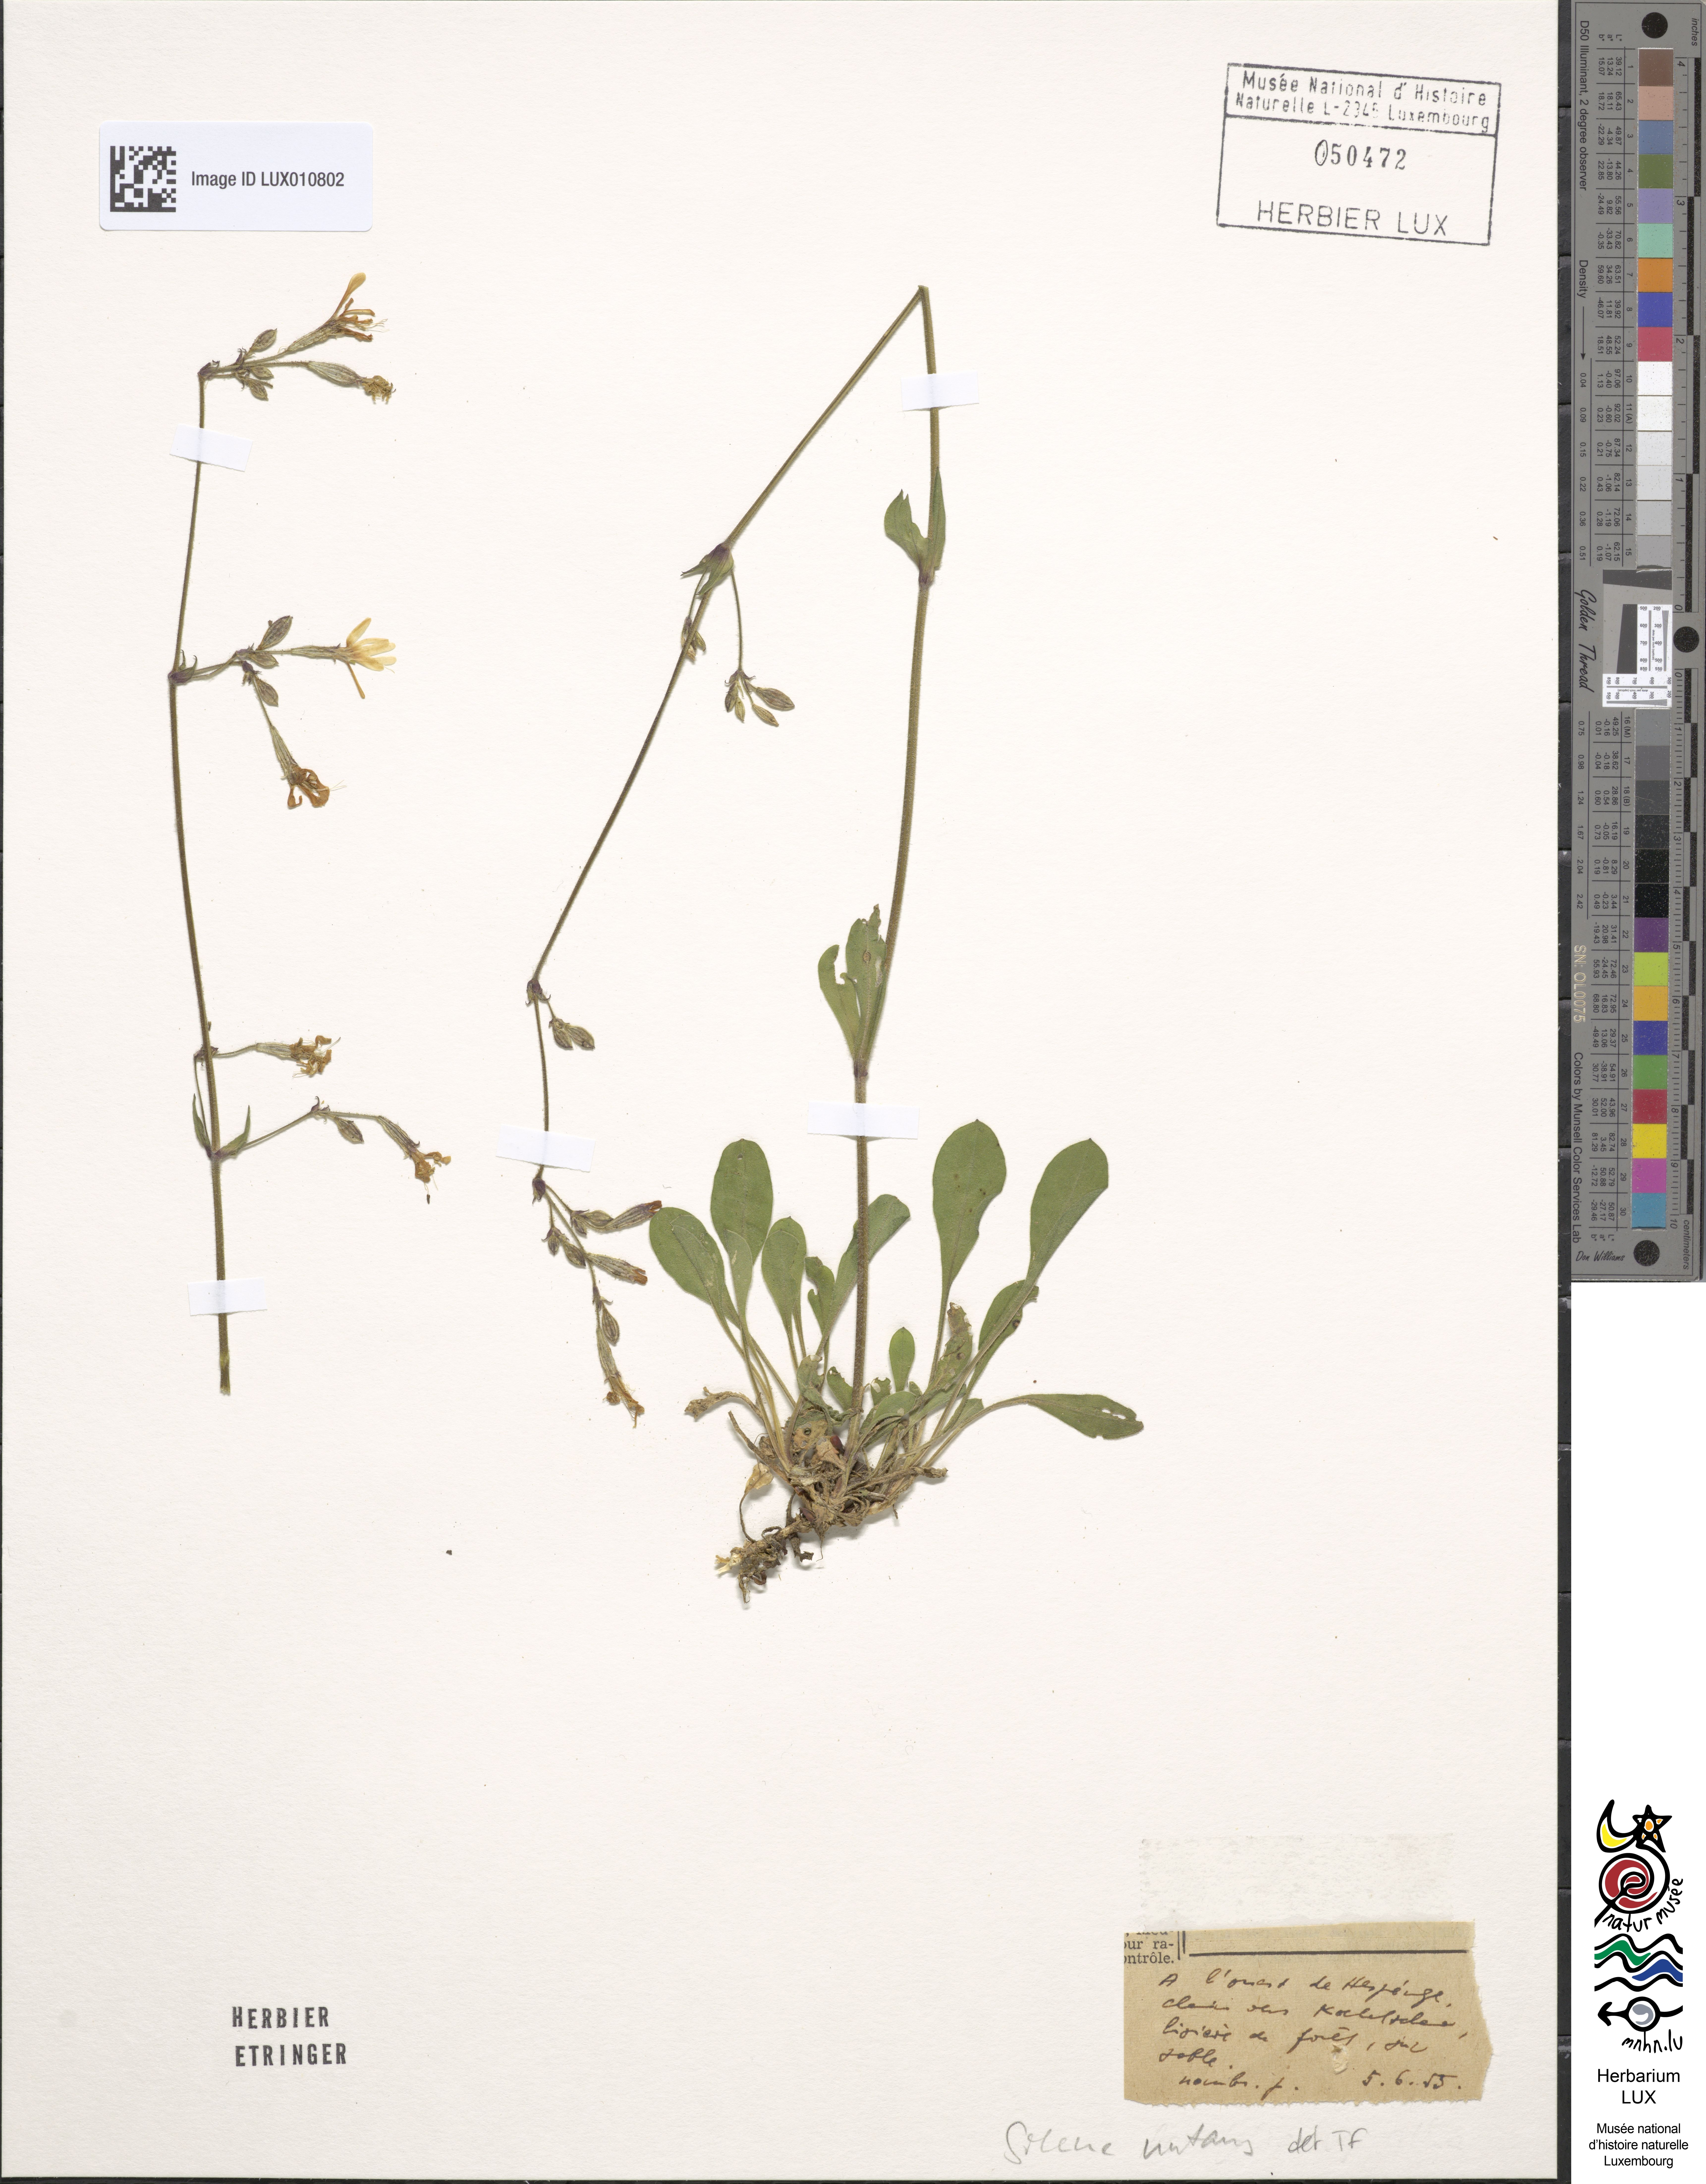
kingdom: Plantae
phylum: Tracheophyta
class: Magnoliopsida
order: Caryophyllales
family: Caryophyllaceae
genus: Silene
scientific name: Silene nutans
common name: Nottingham catchfly
